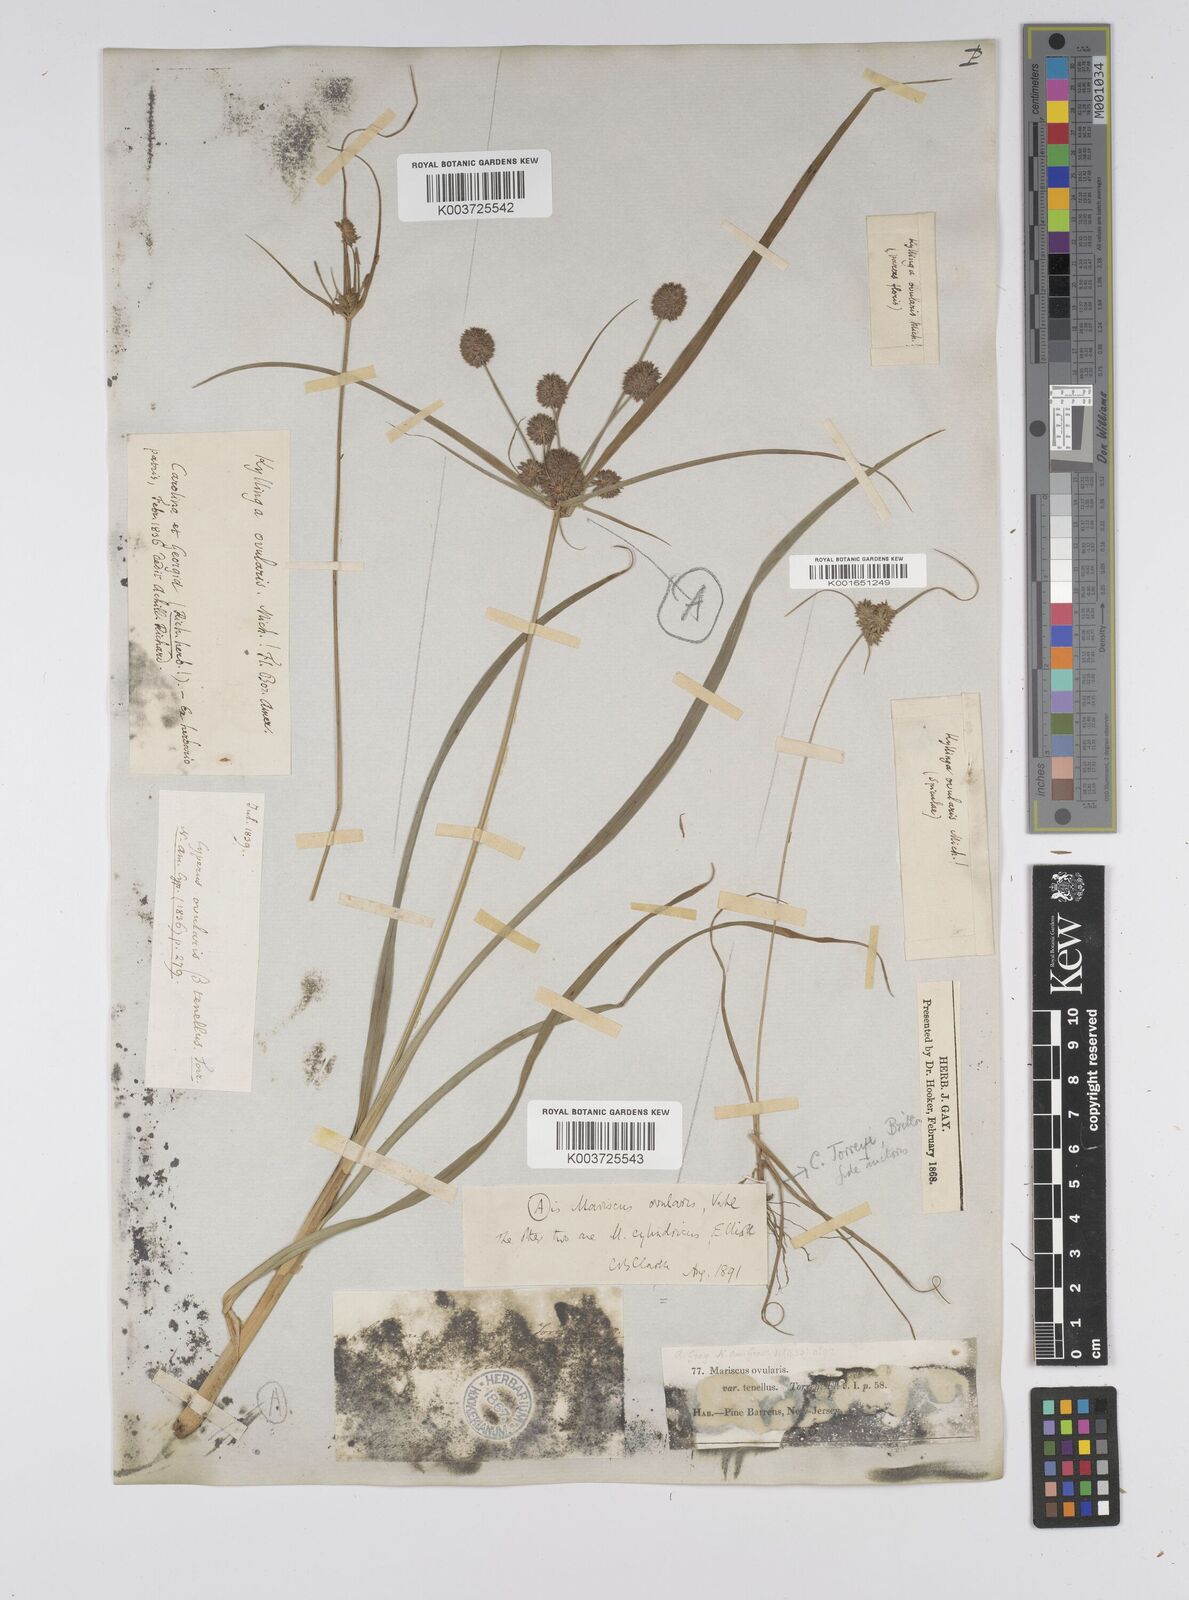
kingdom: Plantae
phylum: Tracheophyta
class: Liliopsida
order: Poales
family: Cyperaceae
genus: Cyperus
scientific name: Cyperus retrorsus
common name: Pinebarren flat sedge
